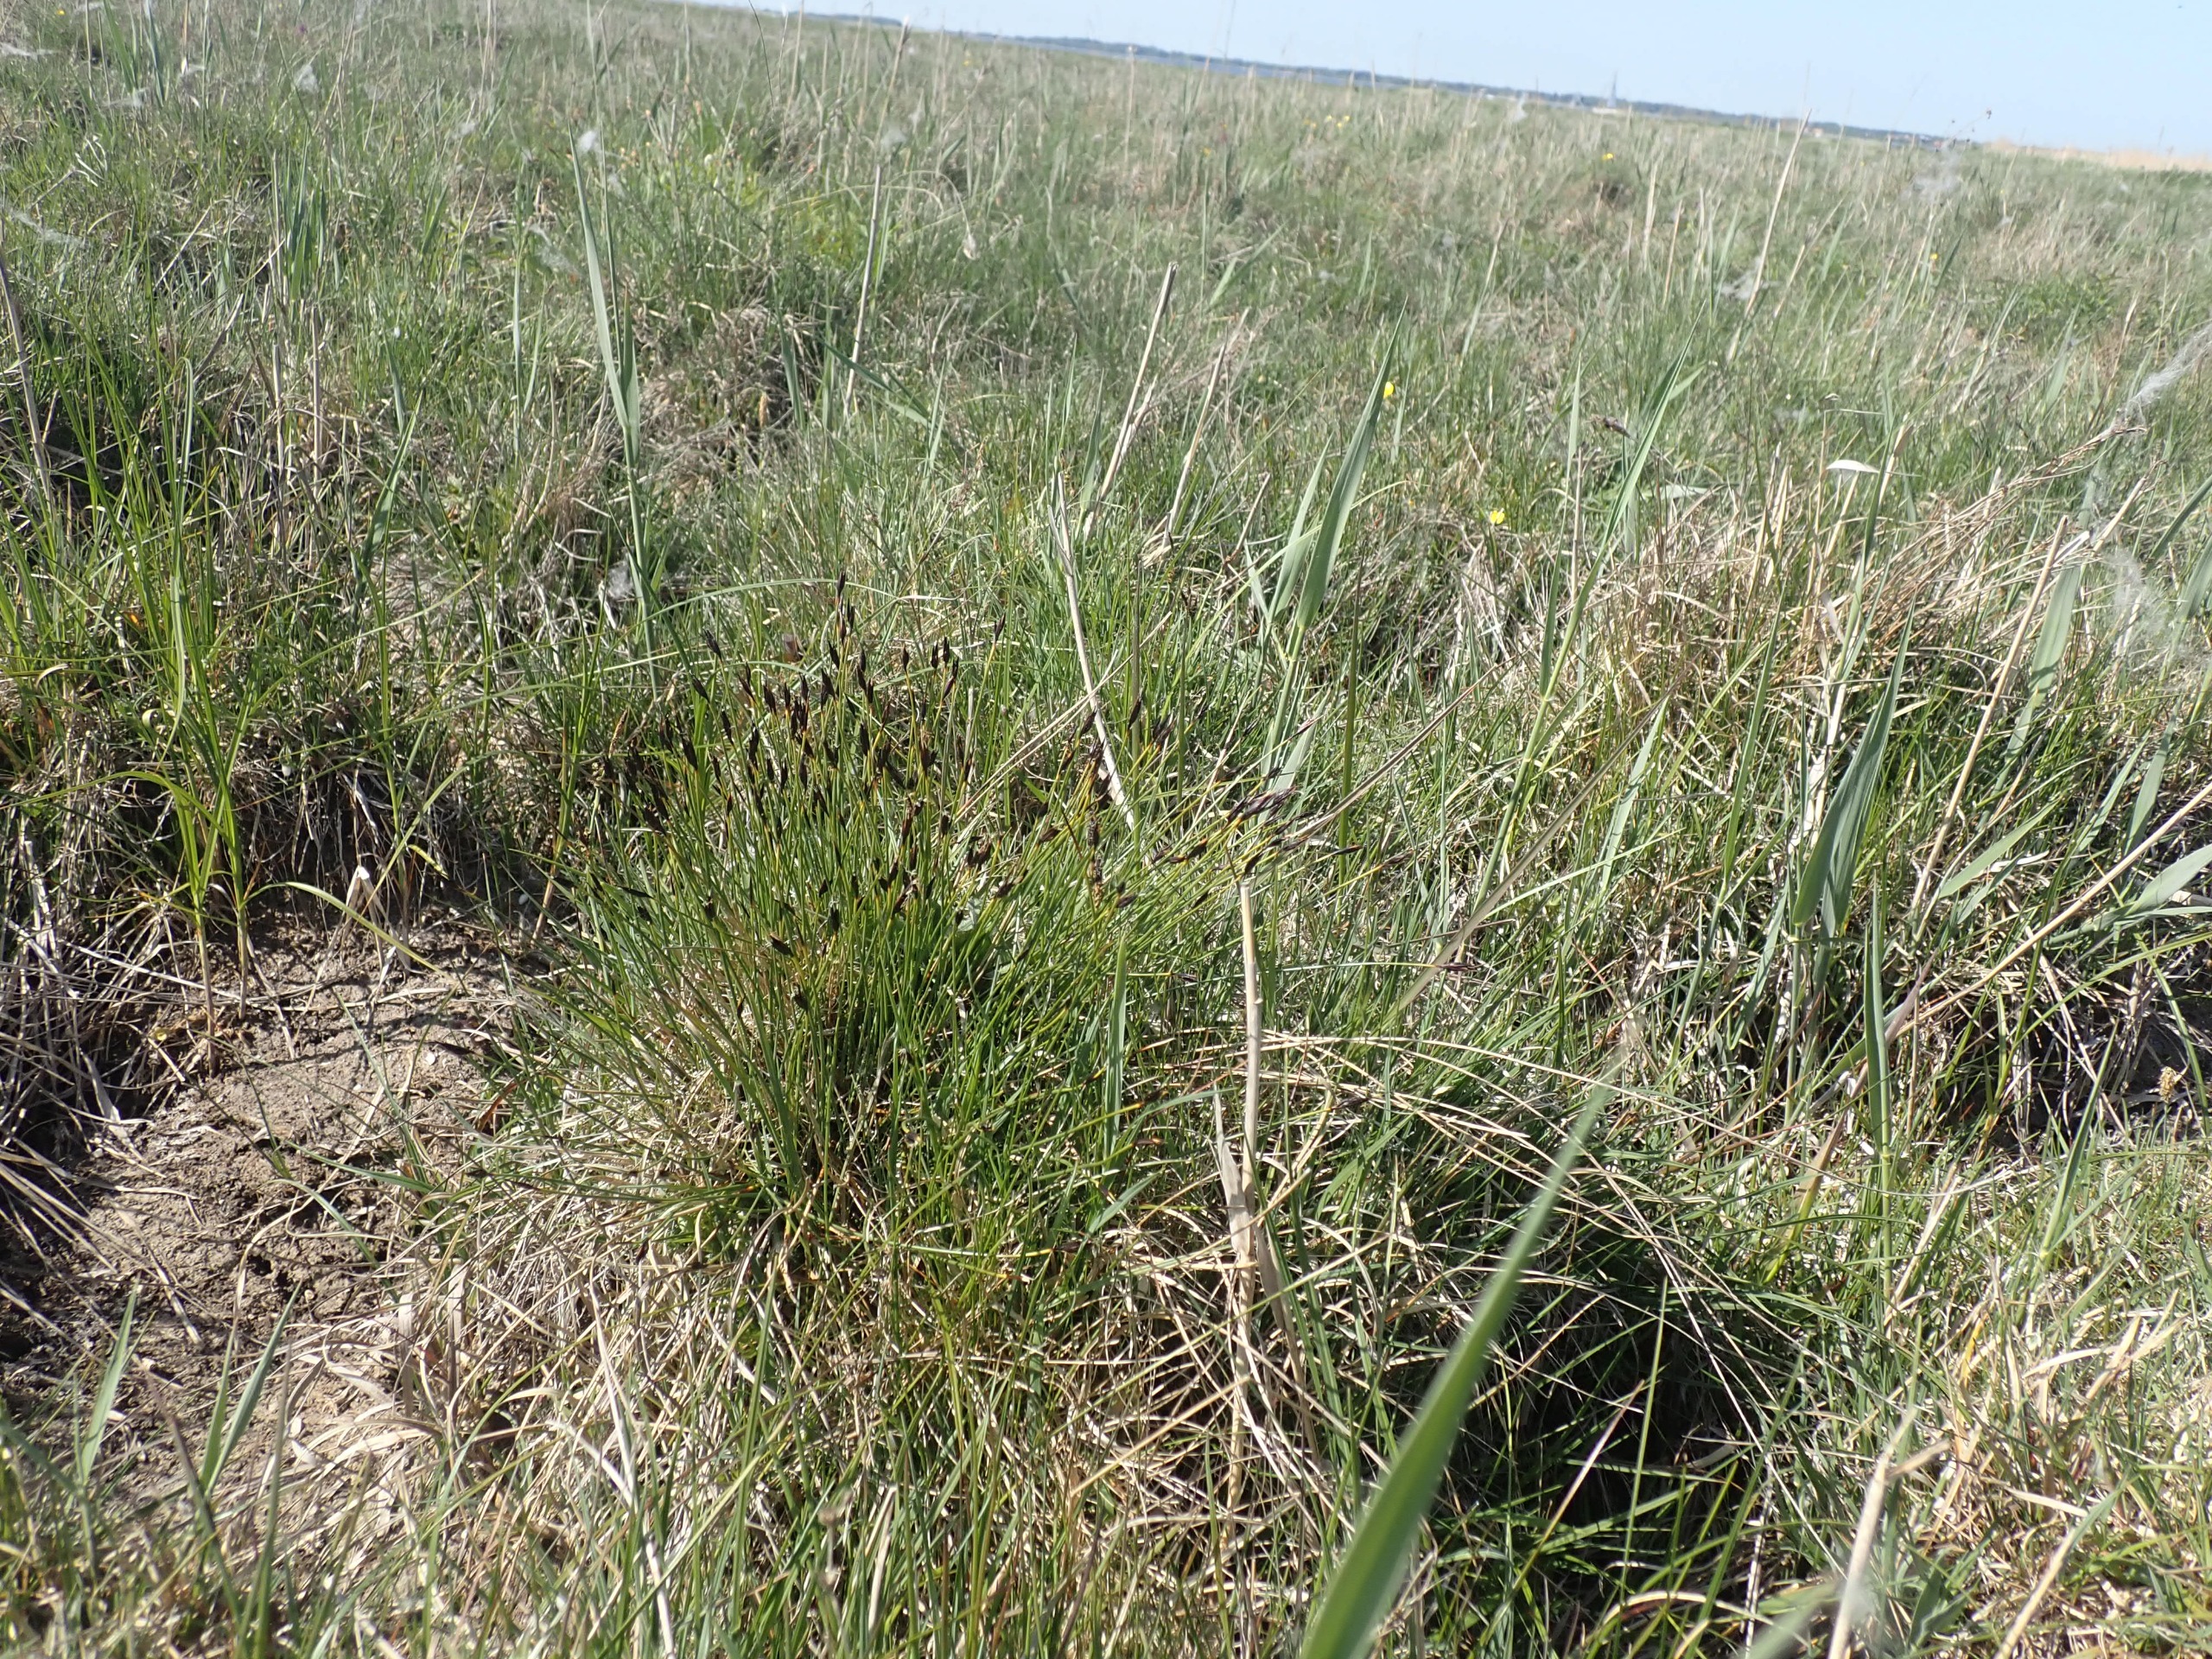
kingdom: Plantae
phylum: Tracheophyta
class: Liliopsida
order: Poales
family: Cyperaceae
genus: Schoenus
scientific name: Schoenus ferrugineus
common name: Rust-skæne
